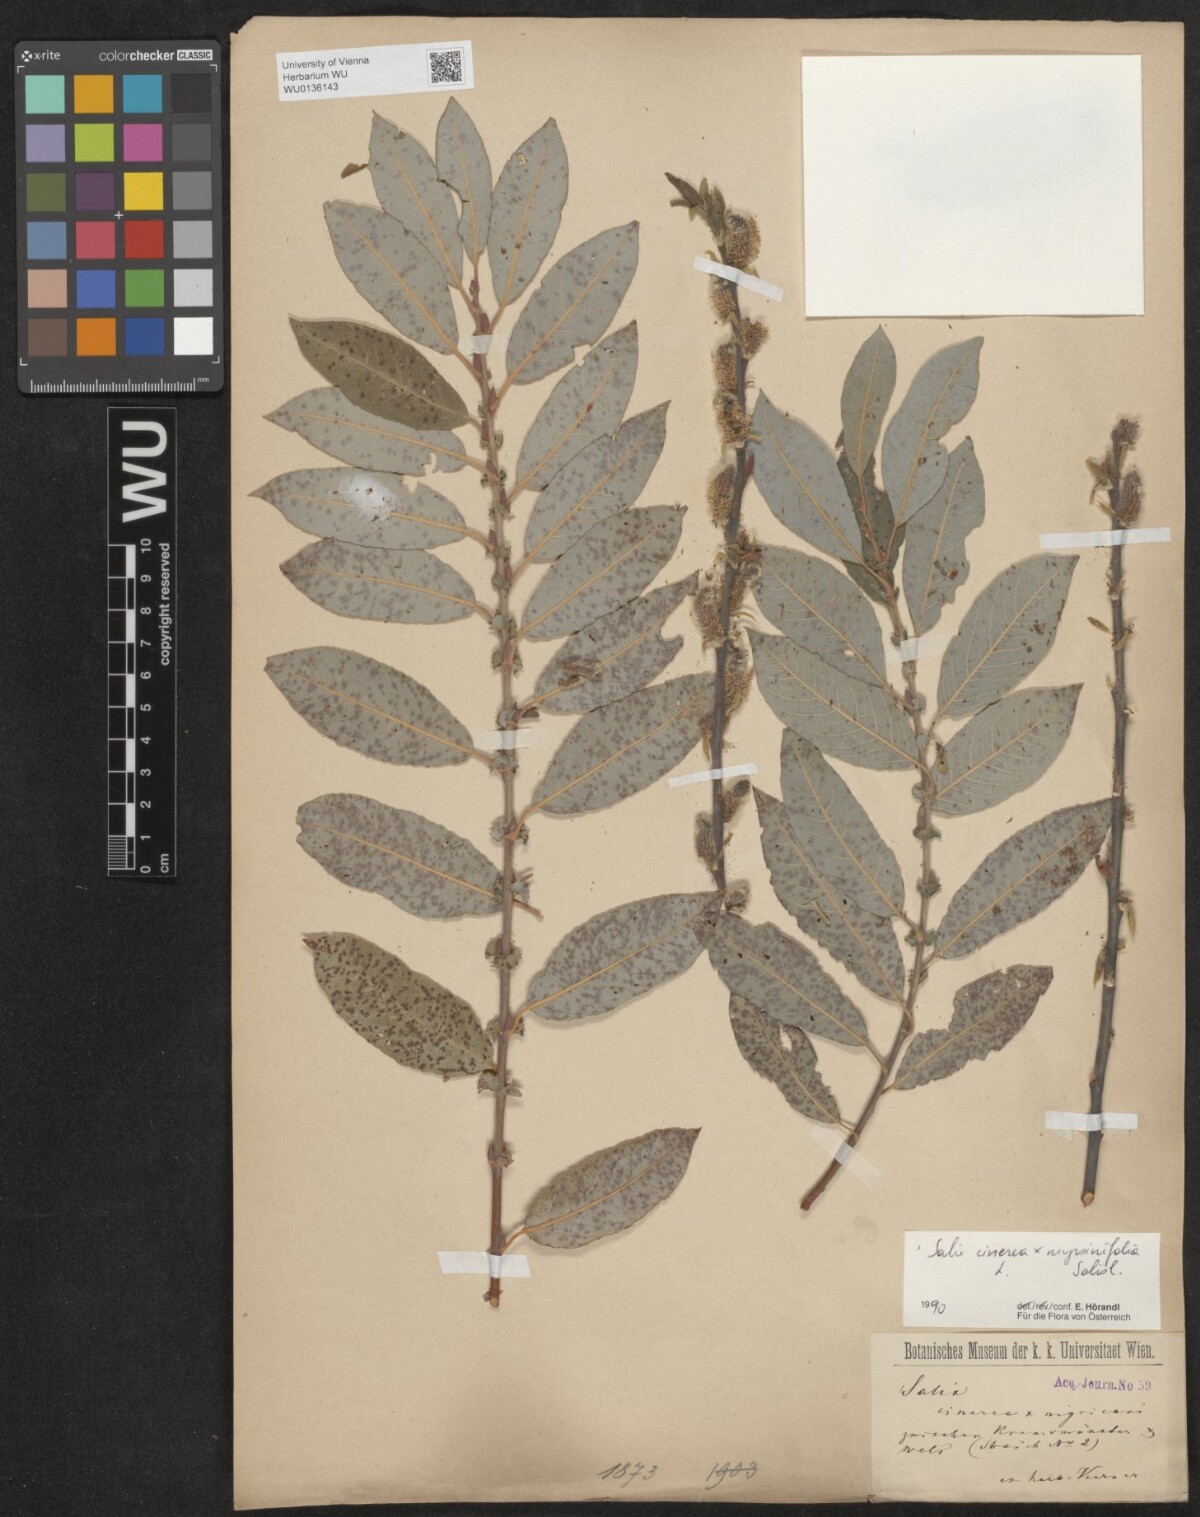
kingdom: Plantae
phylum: Tracheophyta
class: Magnoliopsida
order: Malpighiales
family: Salicaceae
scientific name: Salicaceae
